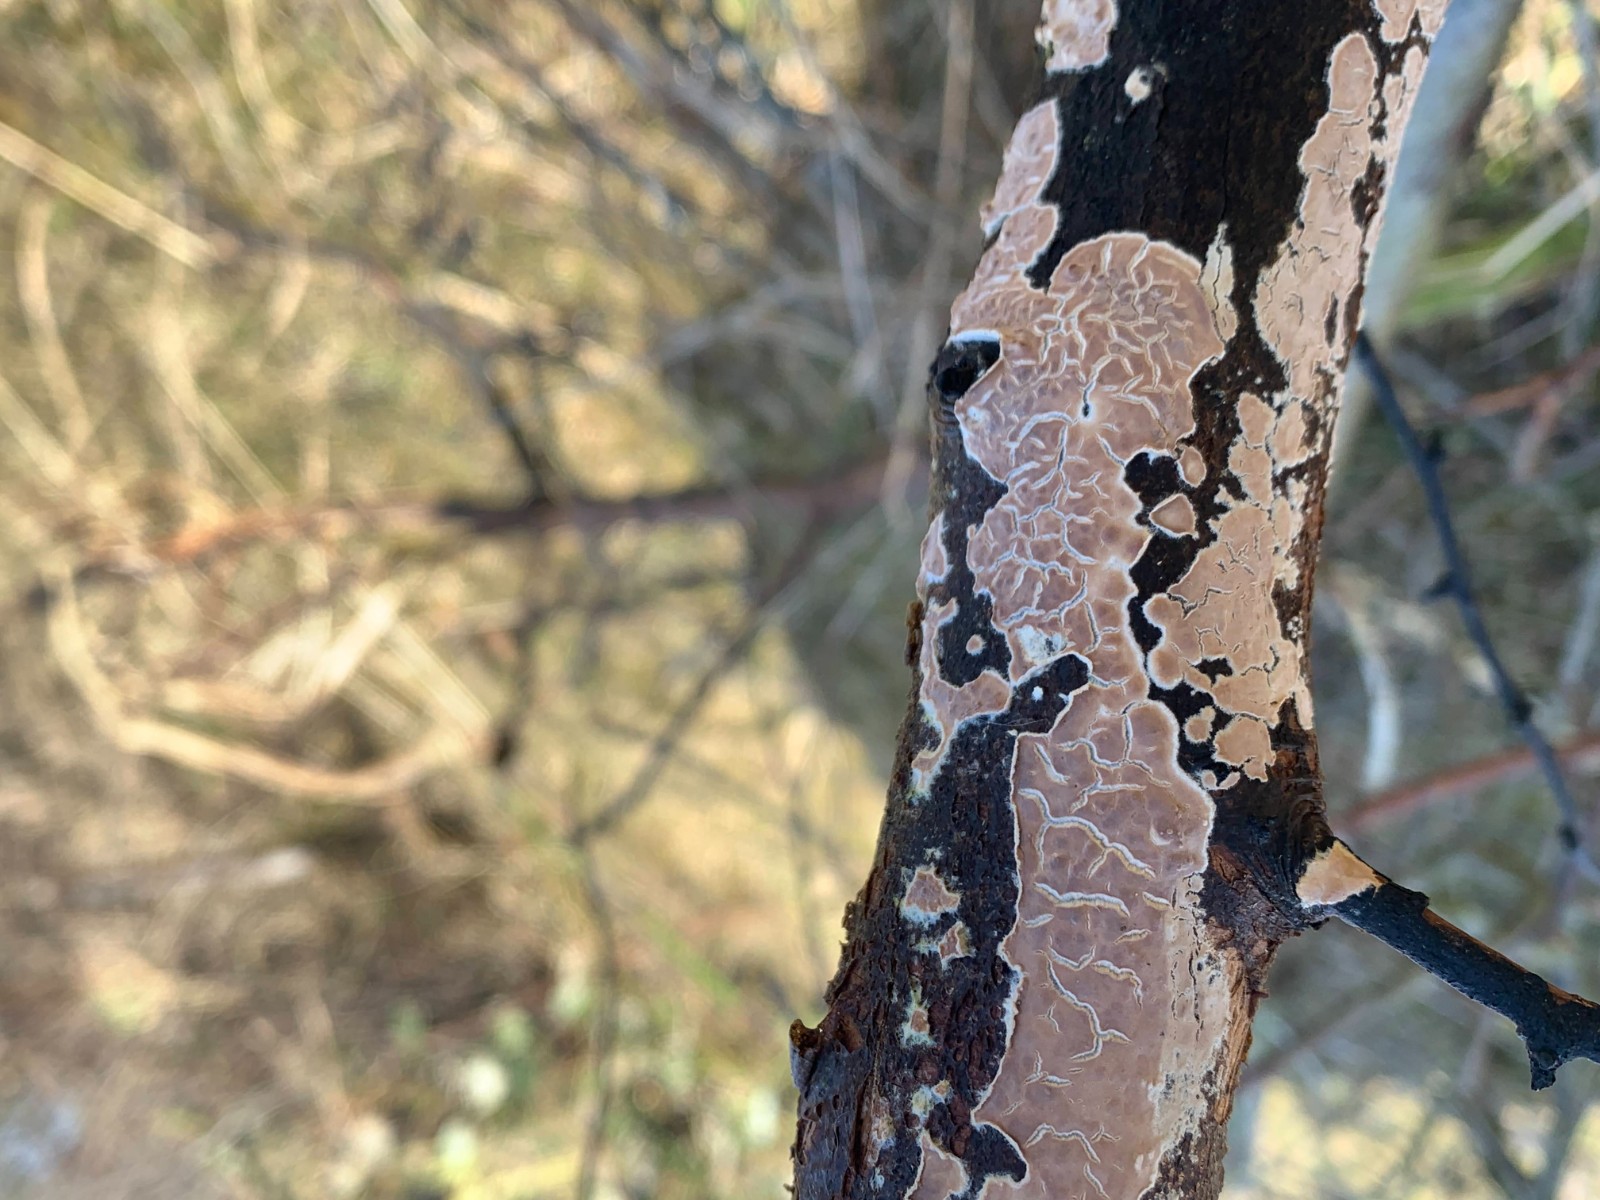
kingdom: Fungi
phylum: Basidiomycota
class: Agaricomycetes
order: Agaricales
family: Physalacriaceae
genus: Cylindrobasidium
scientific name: Cylindrobasidium evolvens
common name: sprækkehinde
